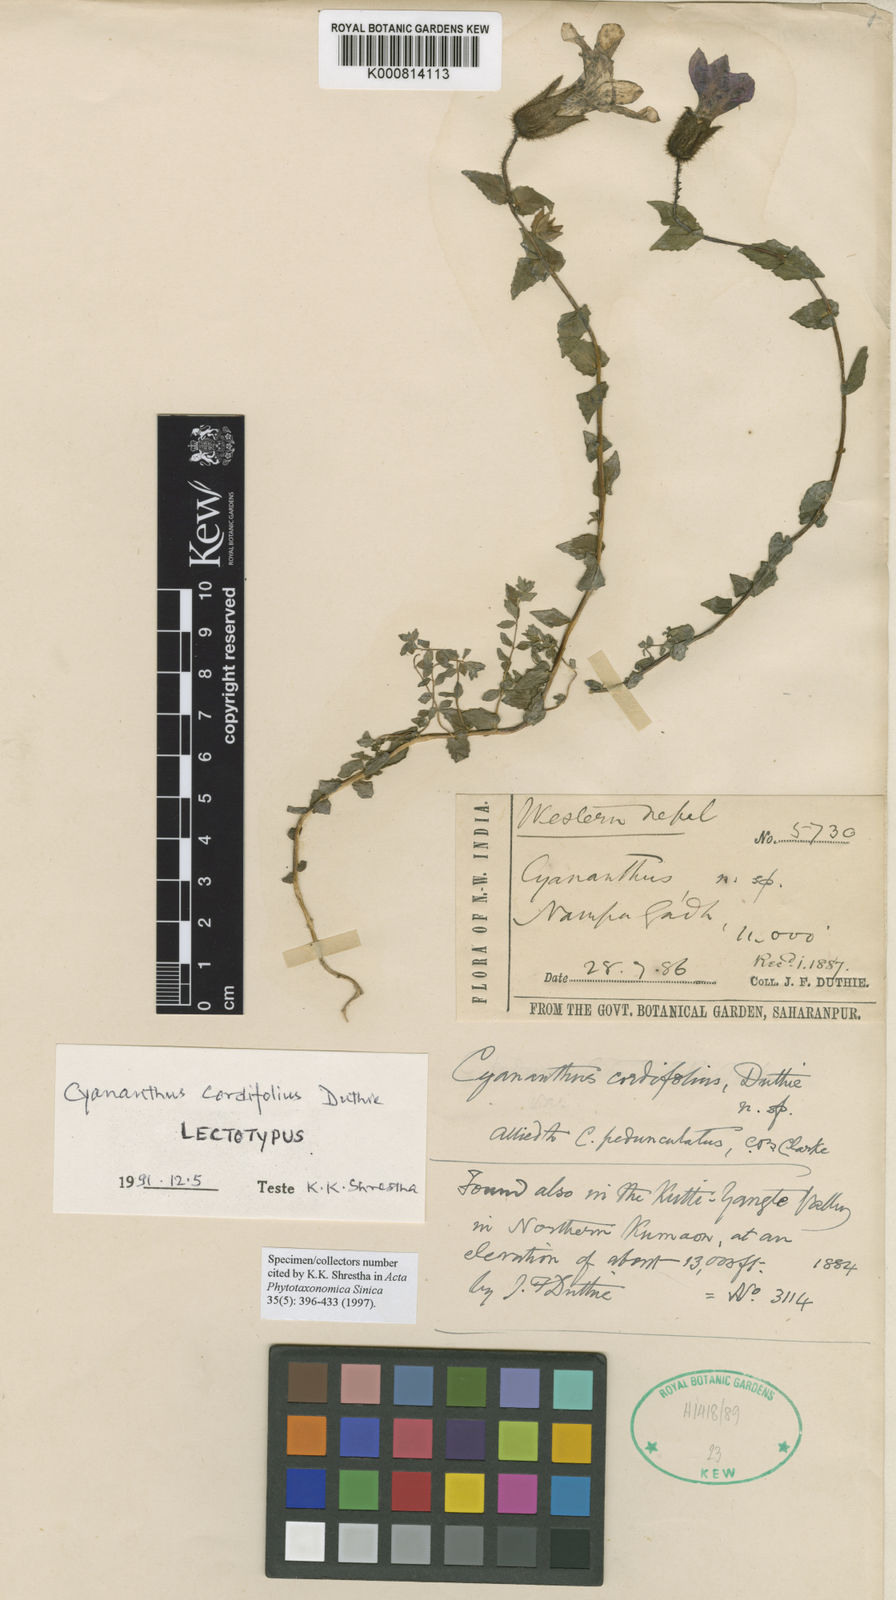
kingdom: Plantae
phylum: Tracheophyta
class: Magnoliopsida
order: Asterales
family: Campanulaceae
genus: Cyananthus
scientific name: Cyananthus cordifolius
